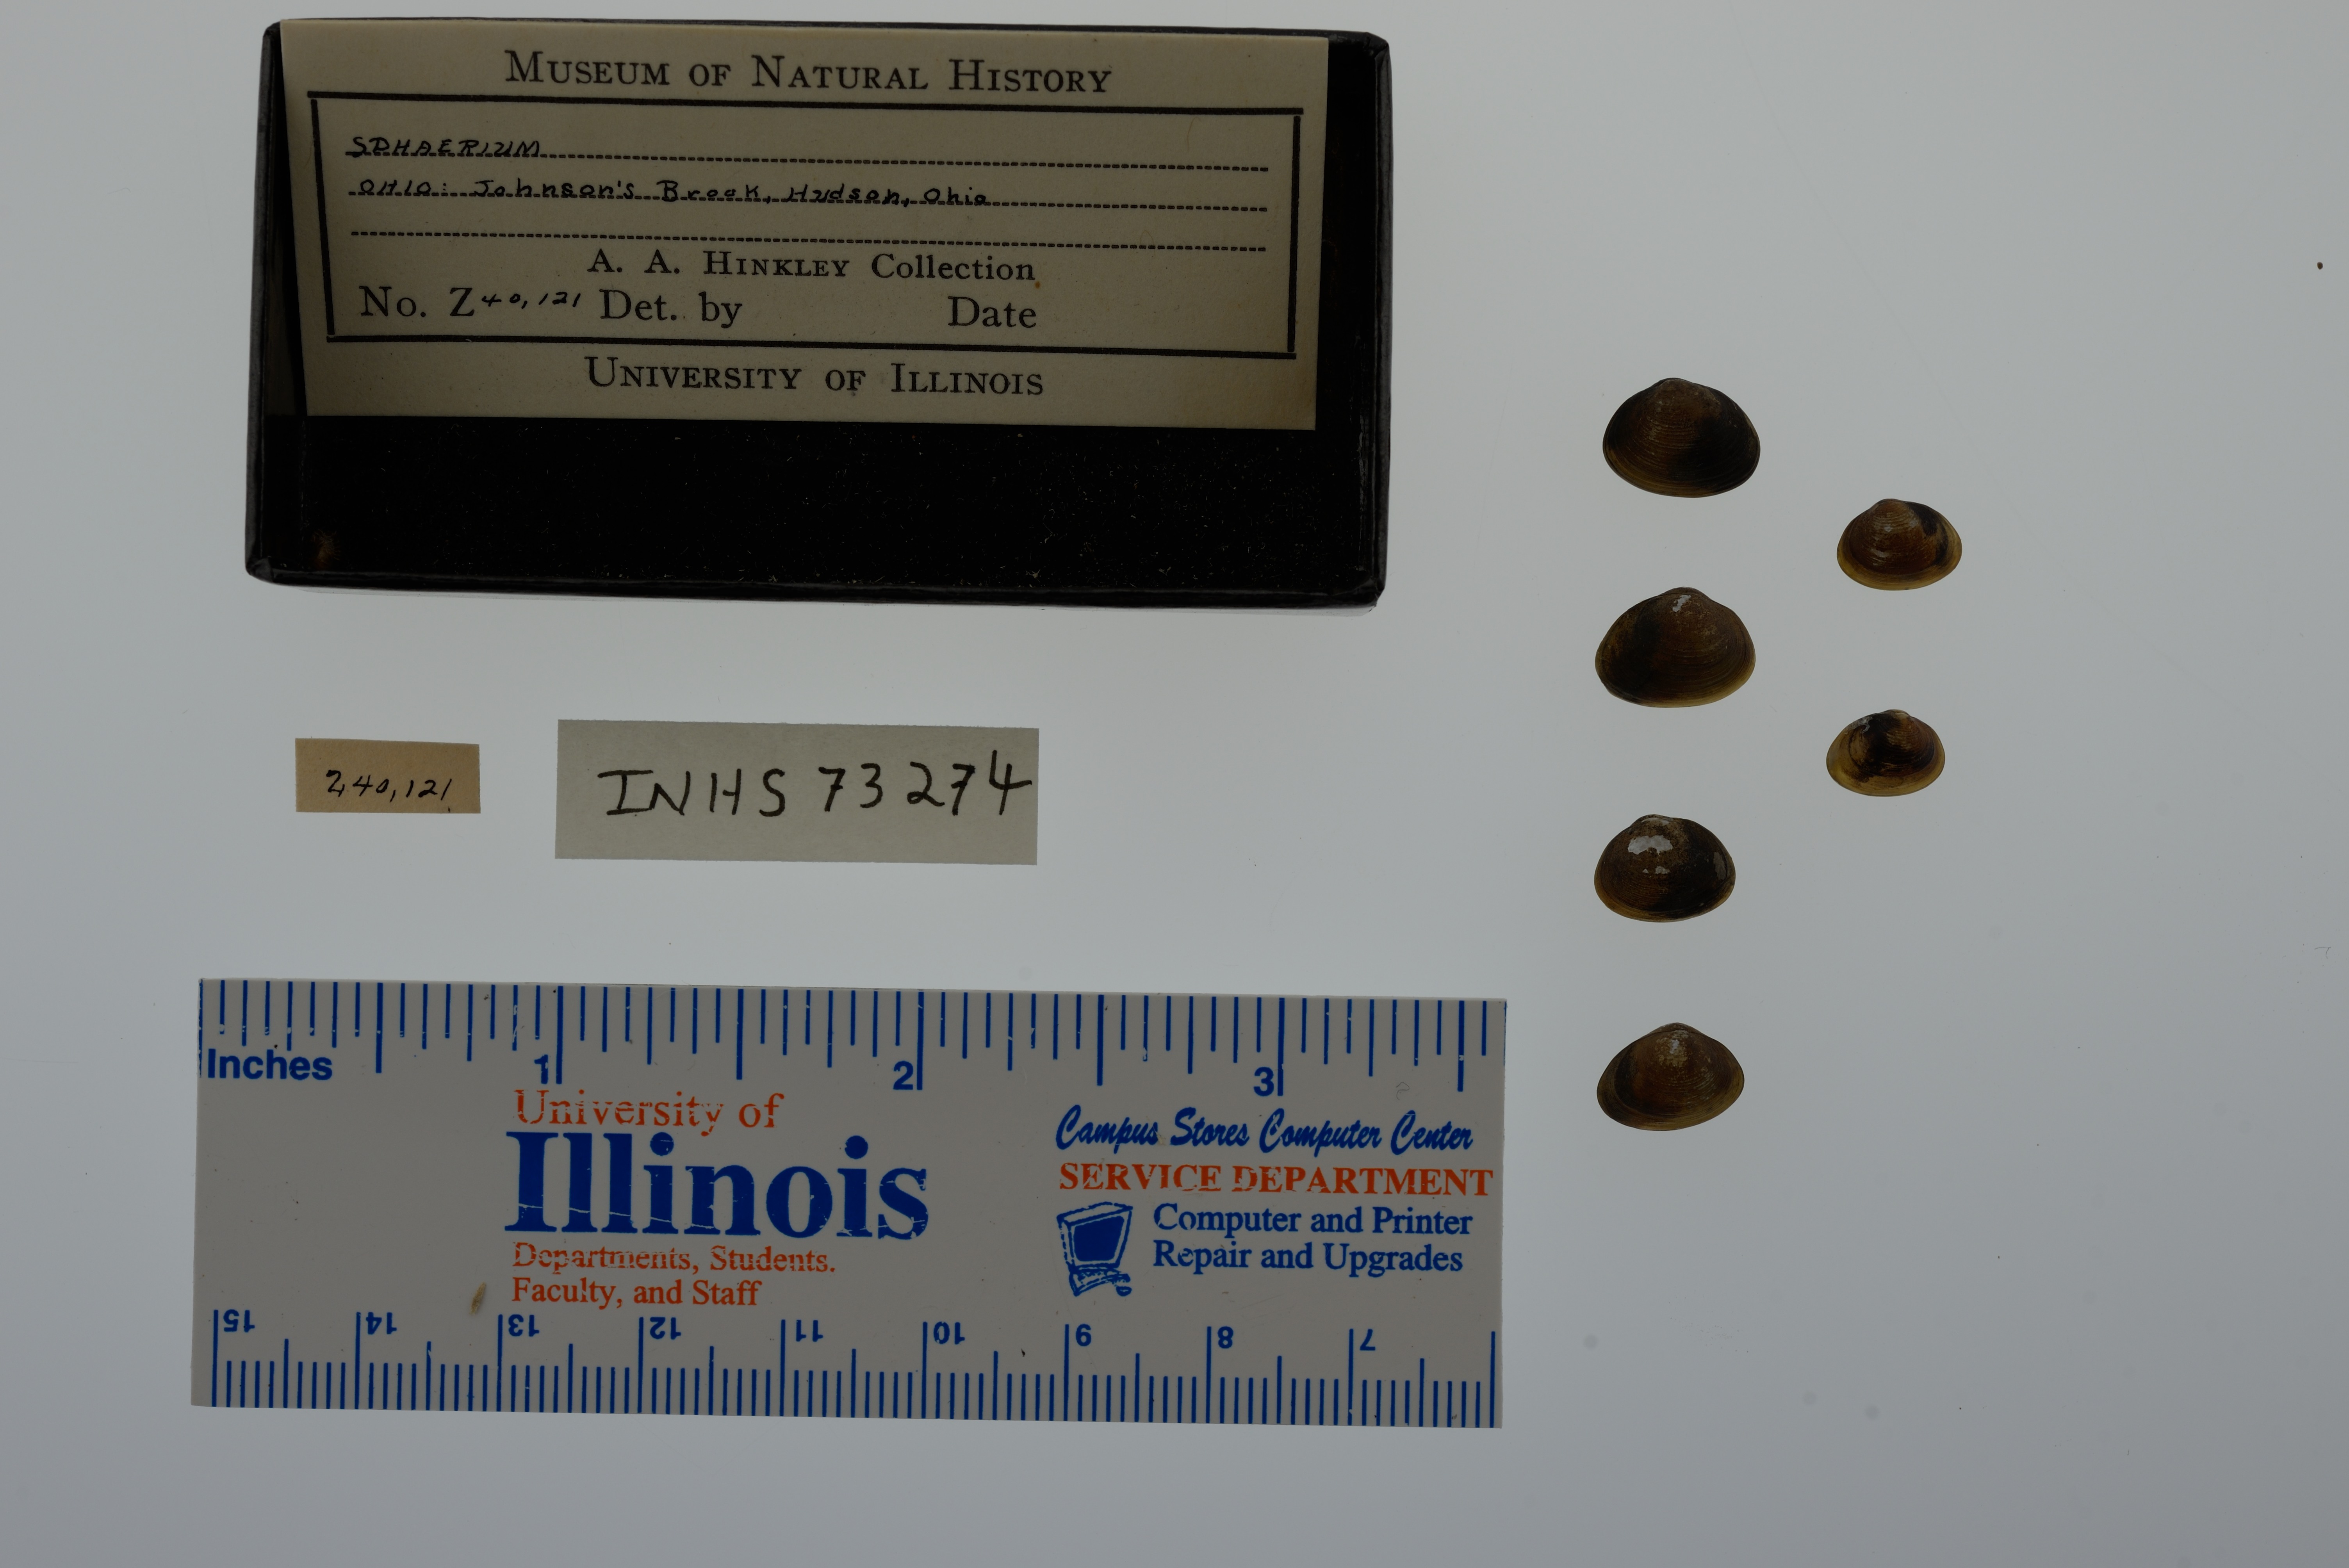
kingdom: Animalia
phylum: Mollusca
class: Bivalvia
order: Sphaeriida
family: Sphaeriidae
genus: Sphaerium
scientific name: Sphaerium
